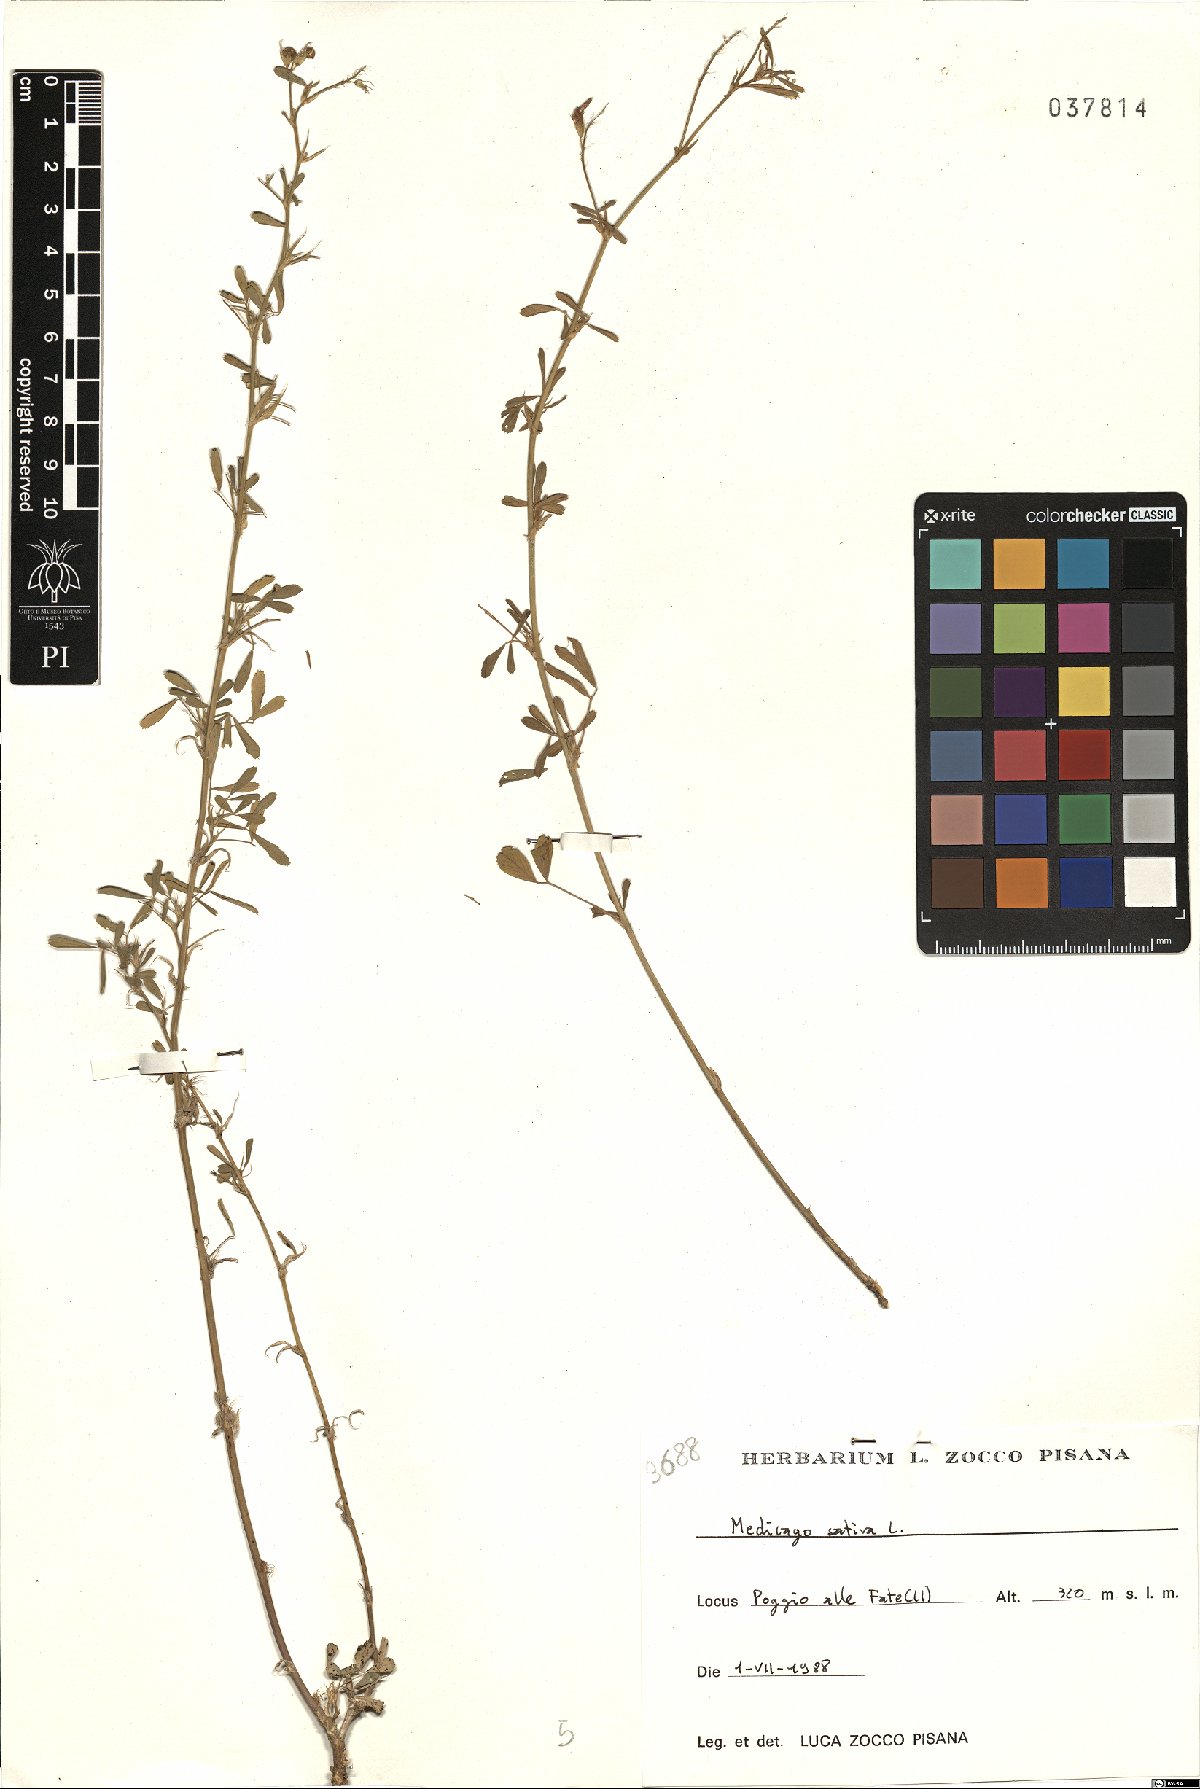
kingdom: Plantae
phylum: Tracheophyta
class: Magnoliopsida
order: Fabales
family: Fabaceae
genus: Medicago
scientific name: Medicago sativa
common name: Alfalfa
